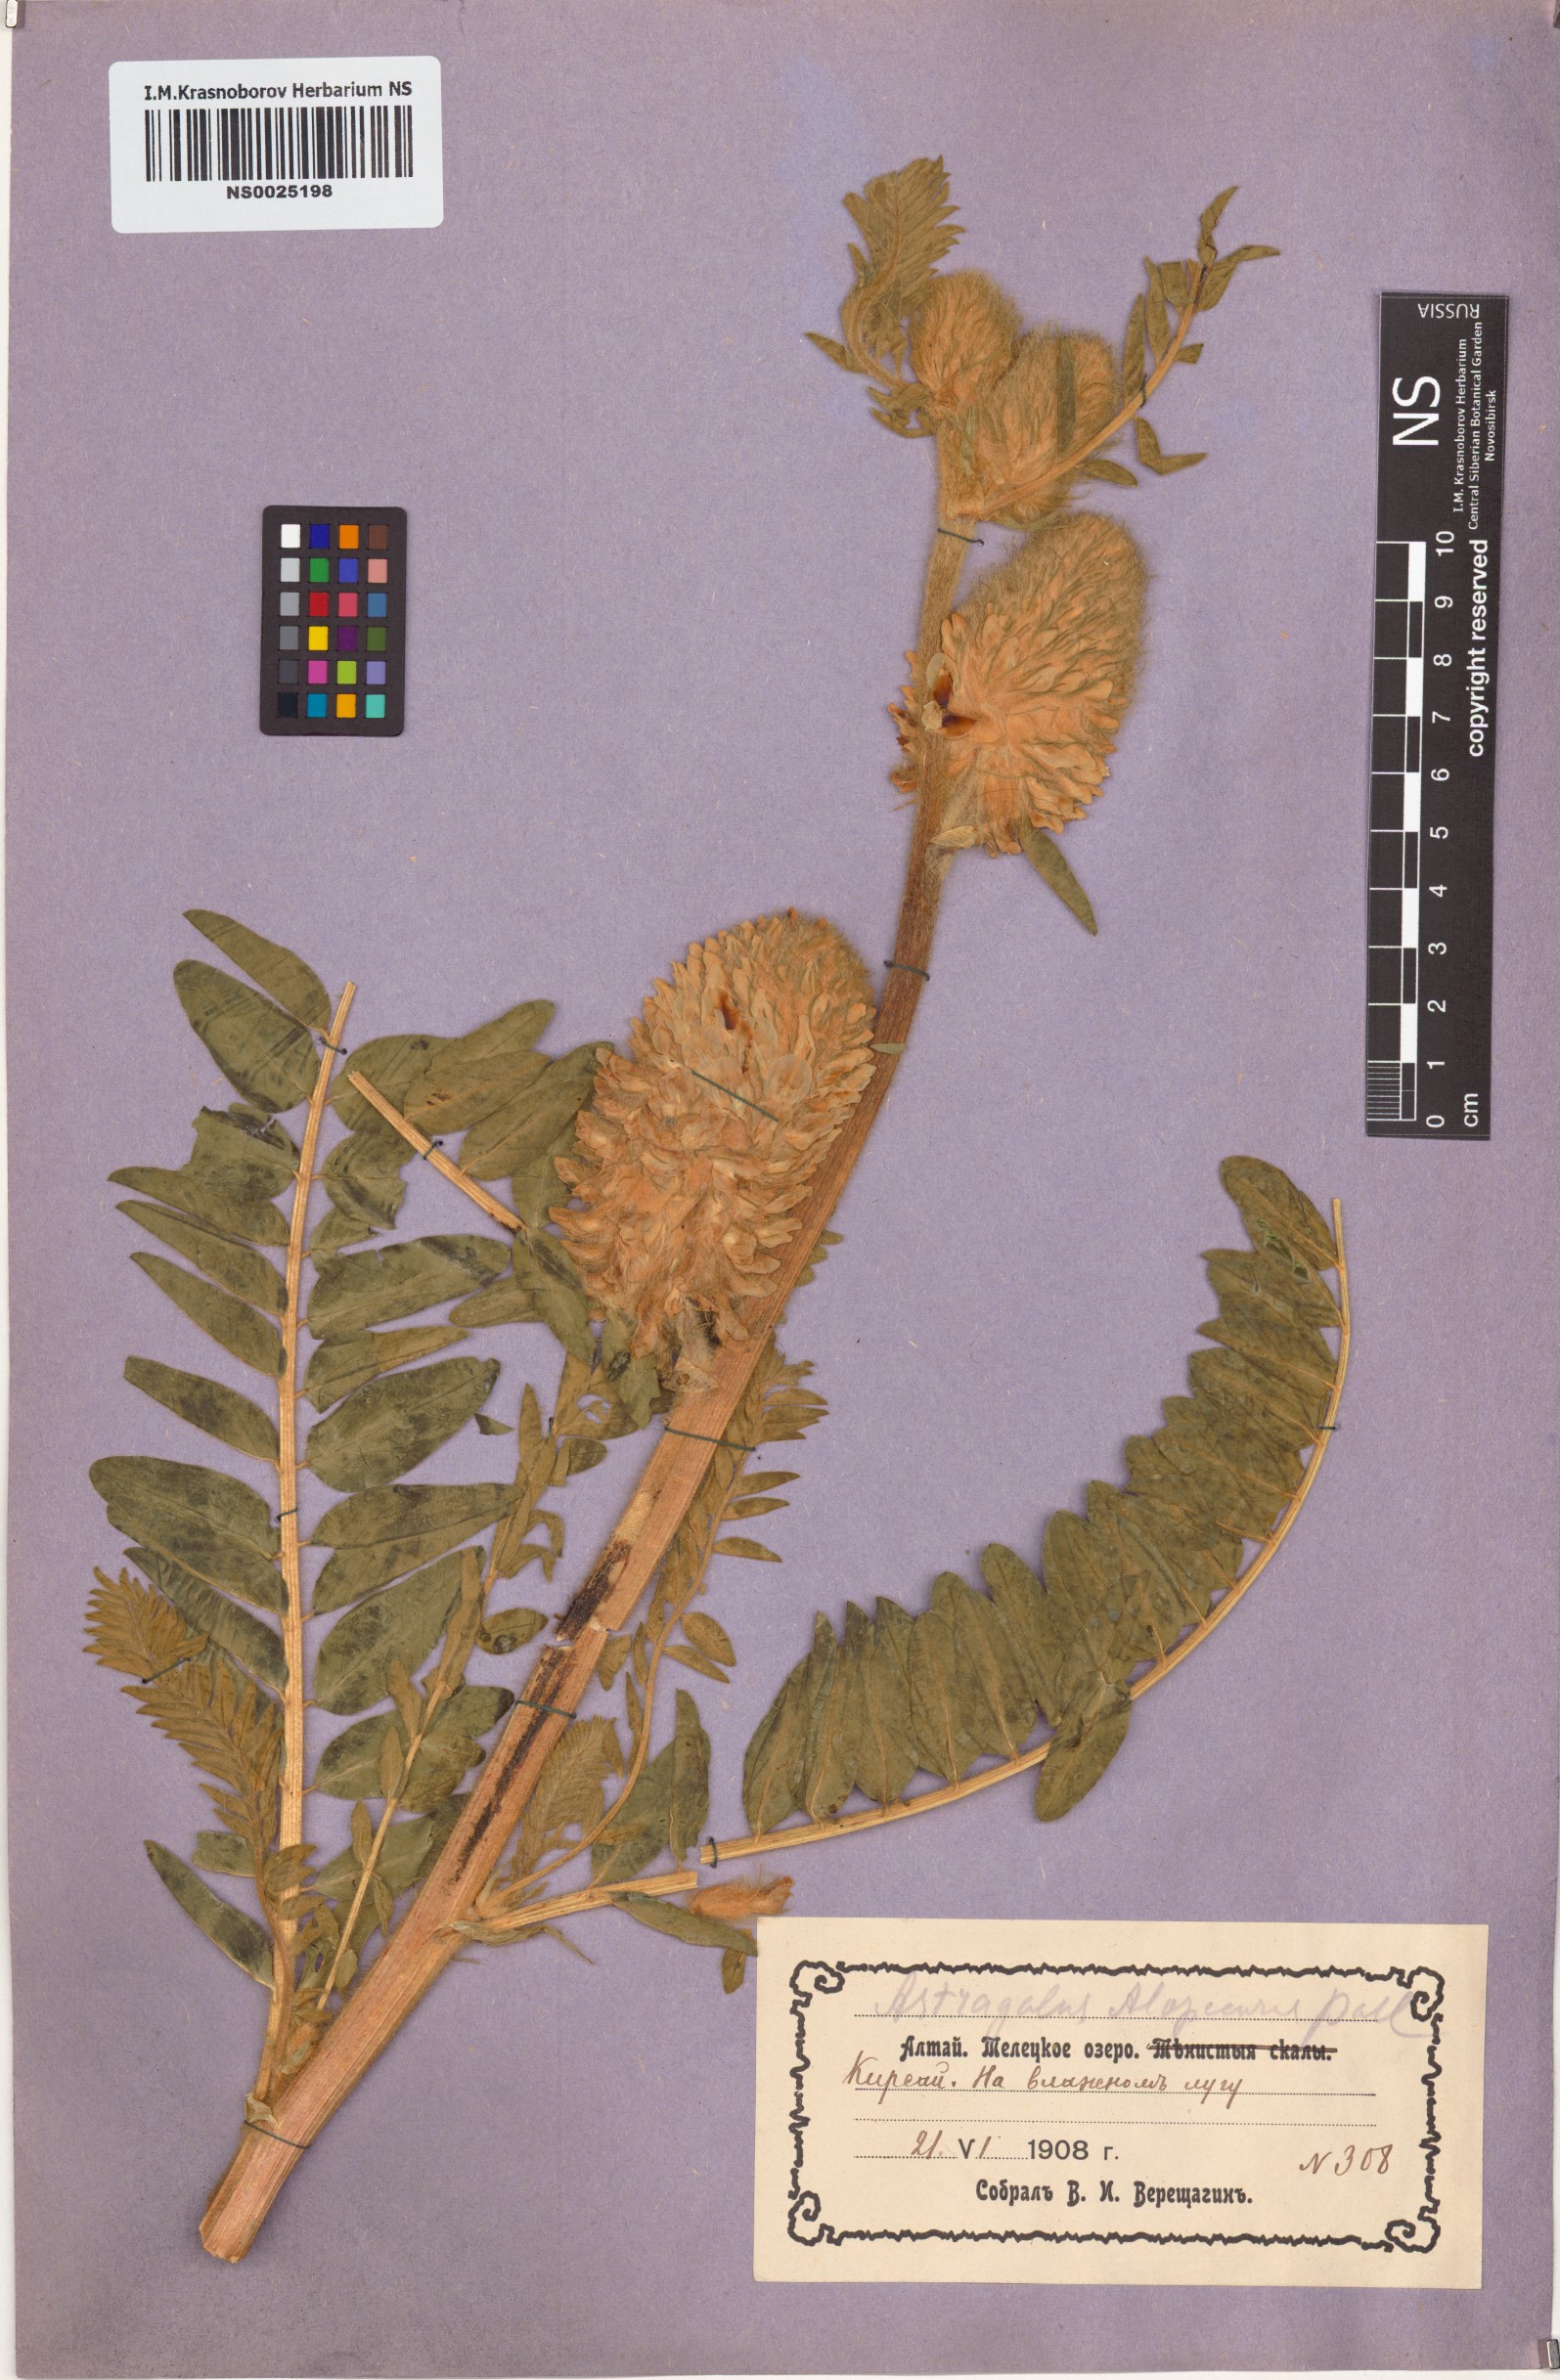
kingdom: Plantae
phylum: Tracheophyta
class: Magnoliopsida
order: Fabales
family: Fabaceae
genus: Astragalus
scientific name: Astragalus alopecurus
